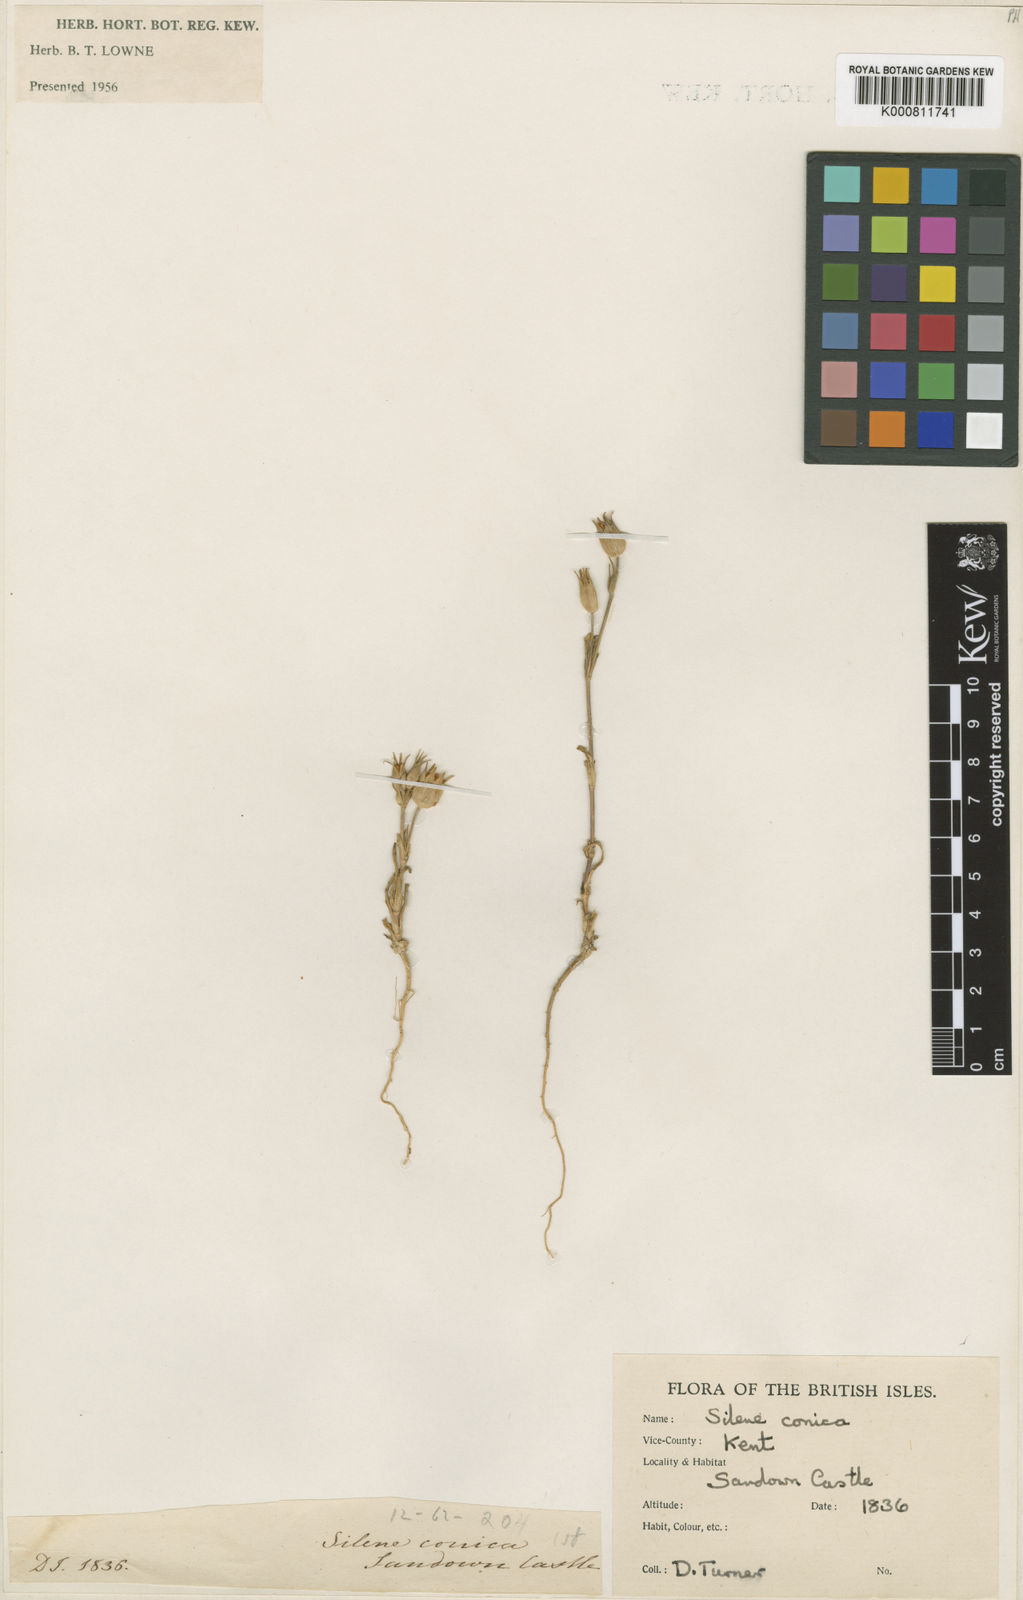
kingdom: Plantae
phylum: Tracheophyta
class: Magnoliopsida
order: Caryophyllales
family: Caryophyllaceae
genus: Silene
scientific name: Silene conica
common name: Sand catchfly
